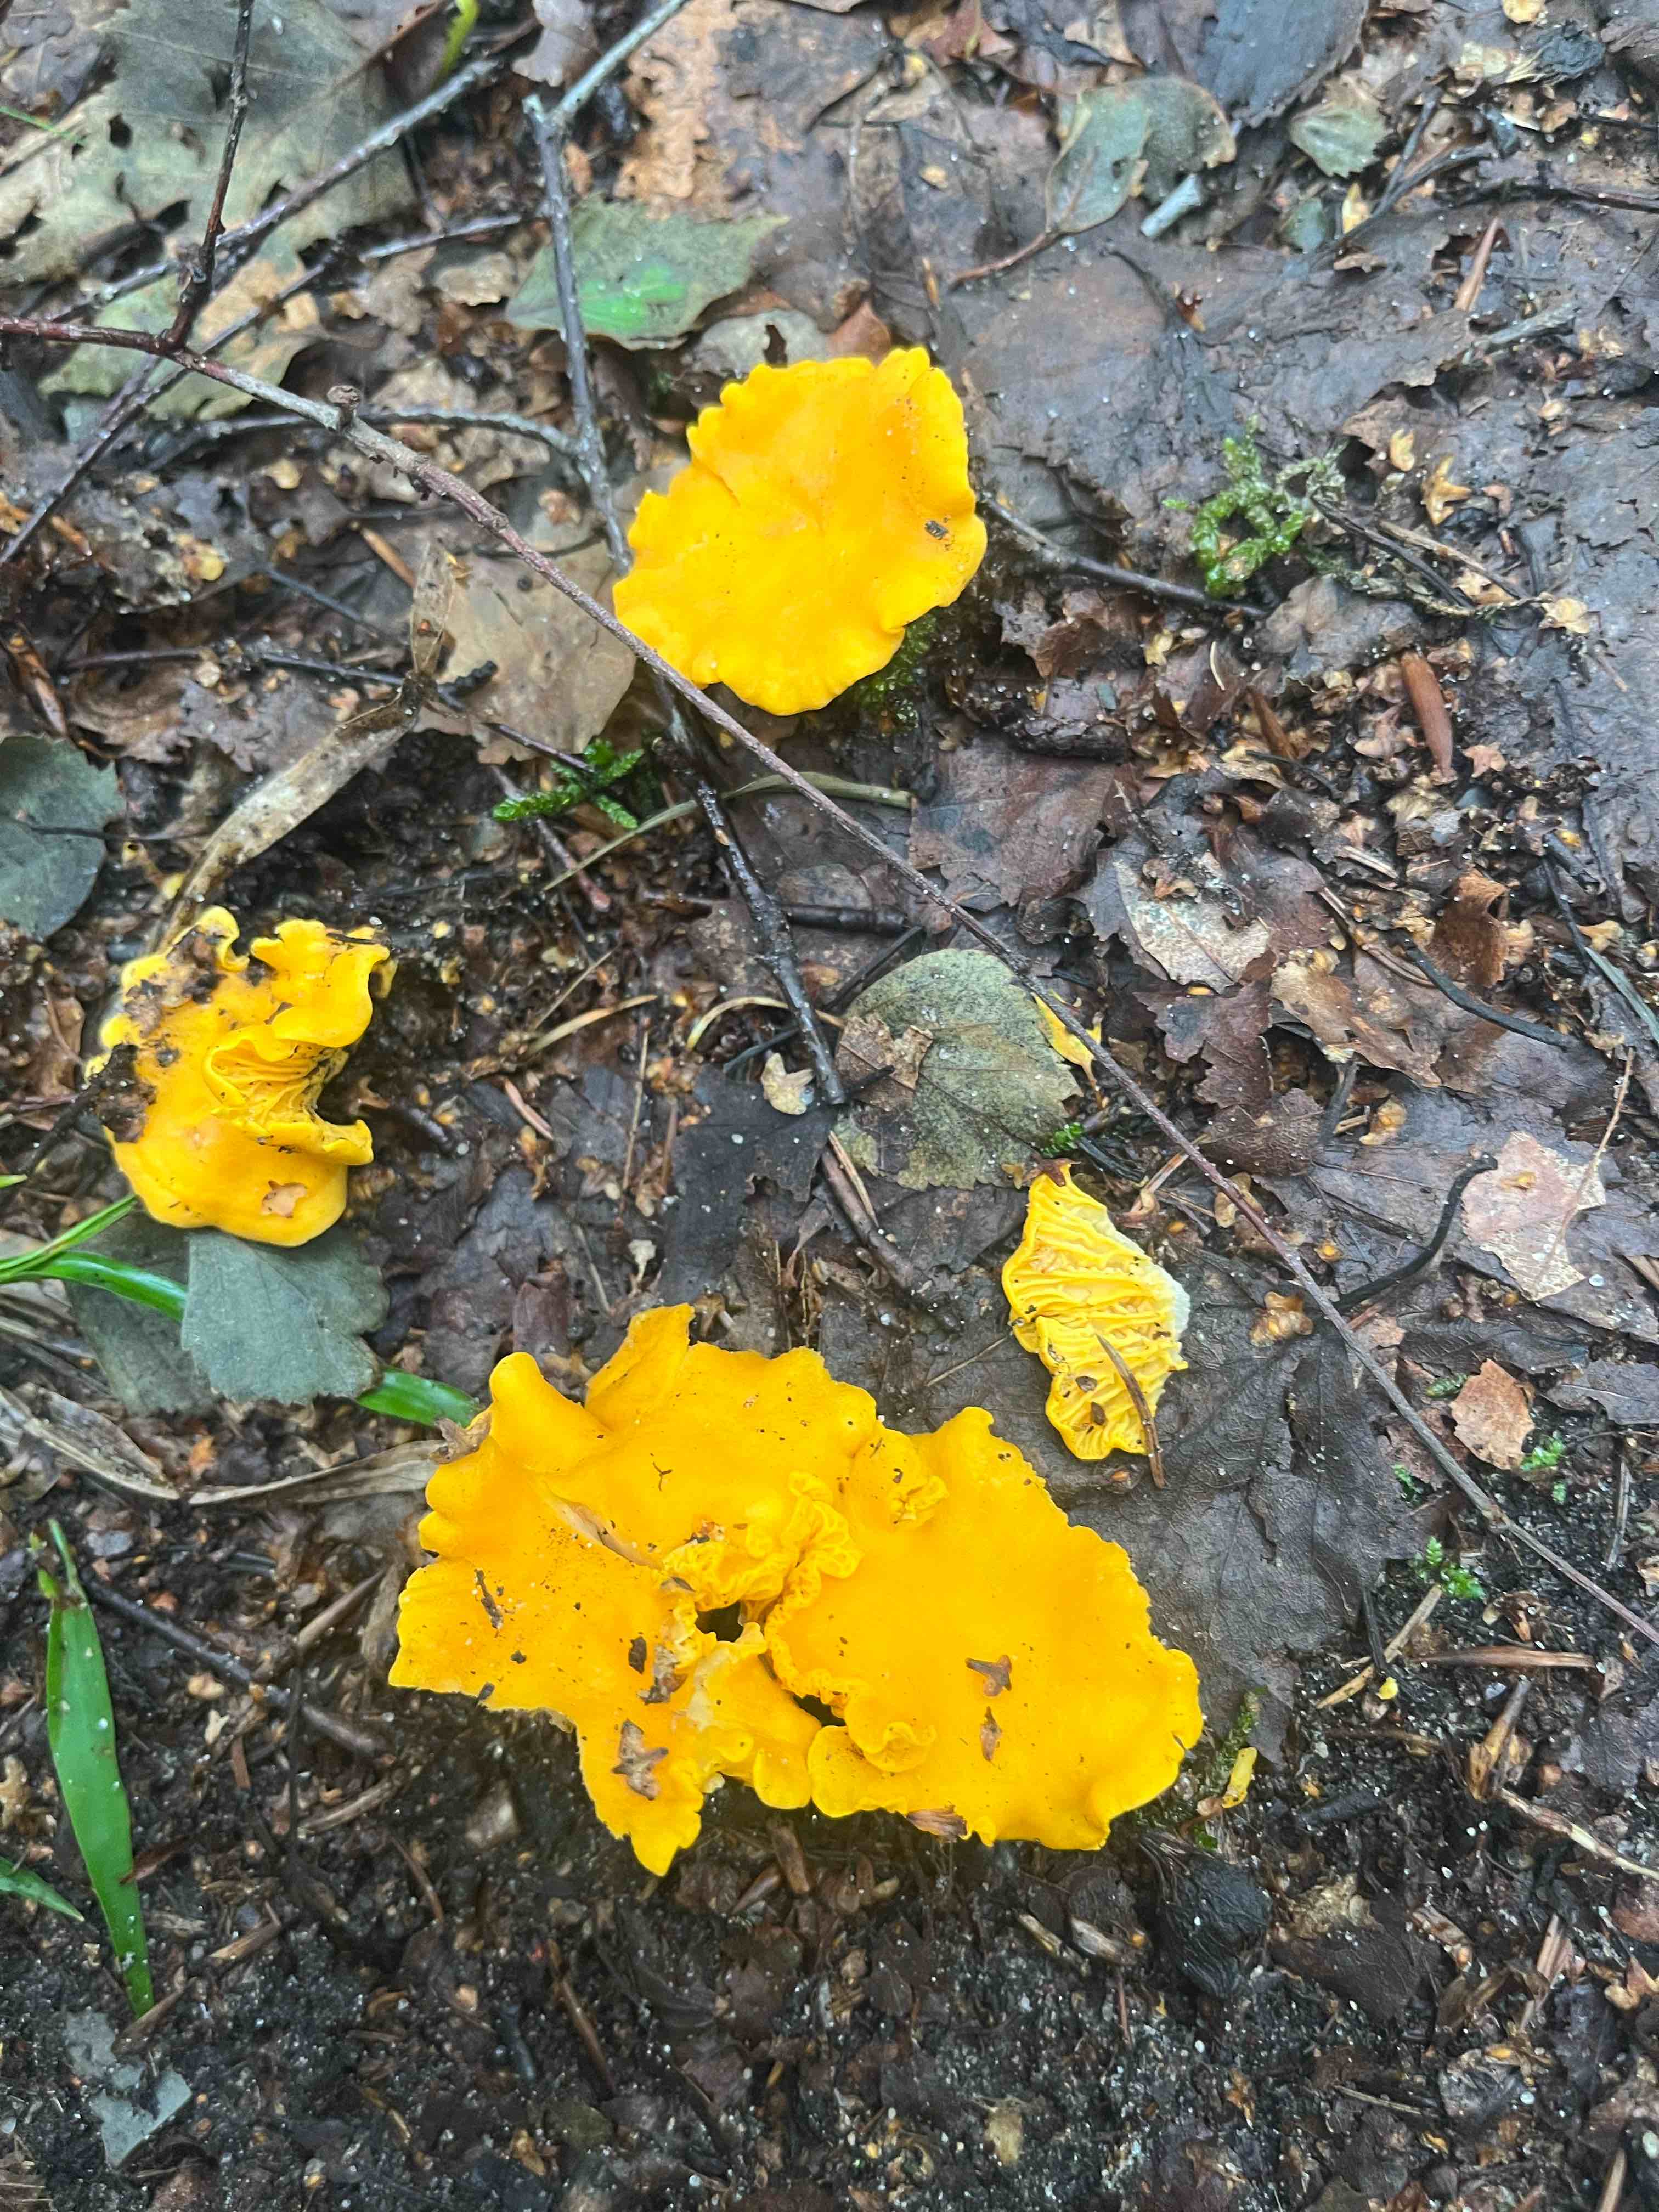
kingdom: Fungi
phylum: Basidiomycota
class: Agaricomycetes
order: Cantharellales
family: Hydnaceae
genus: Cantharellus
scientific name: Cantharellus cibarius
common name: almindelig kantarel
